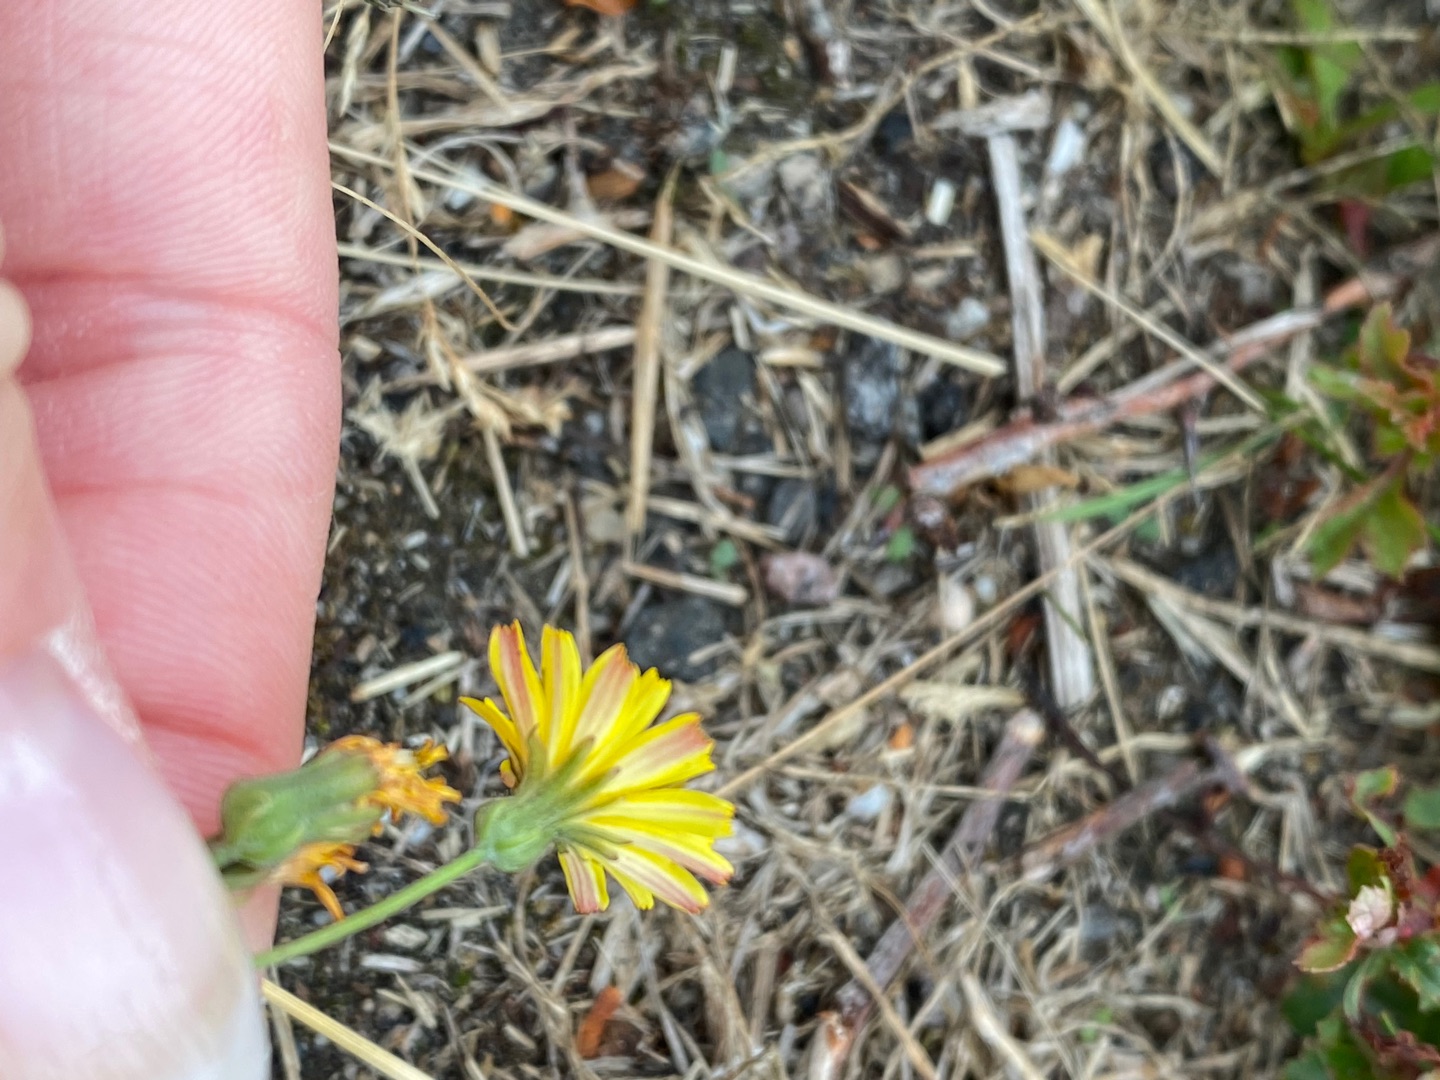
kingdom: Plantae
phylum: Tracheophyta
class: Magnoliopsida
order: Asterales
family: Asteraceae
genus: Crepis
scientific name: Crepis capillaris
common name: Grøn høgeskæg
